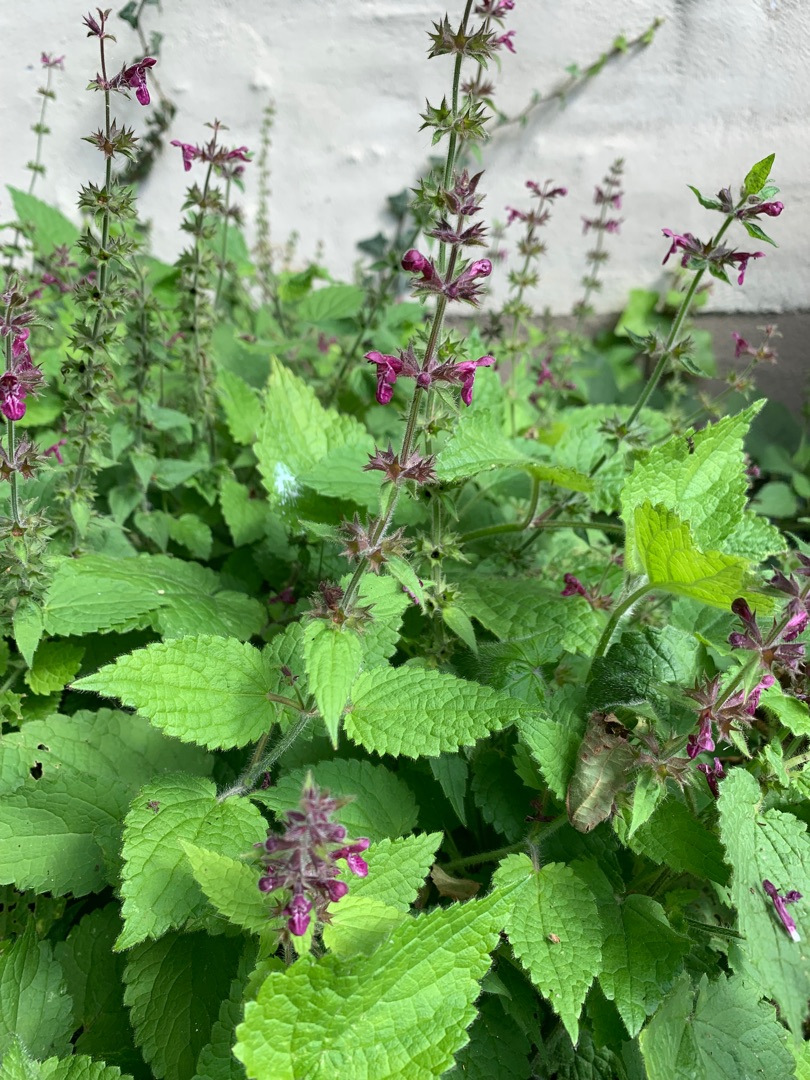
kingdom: Plantae
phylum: Tracheophyta
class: Magnoliopsida
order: Lamiales
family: Lamiaceae
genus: Stachys
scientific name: Stachys sylvatica
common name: Skov-galtetand
